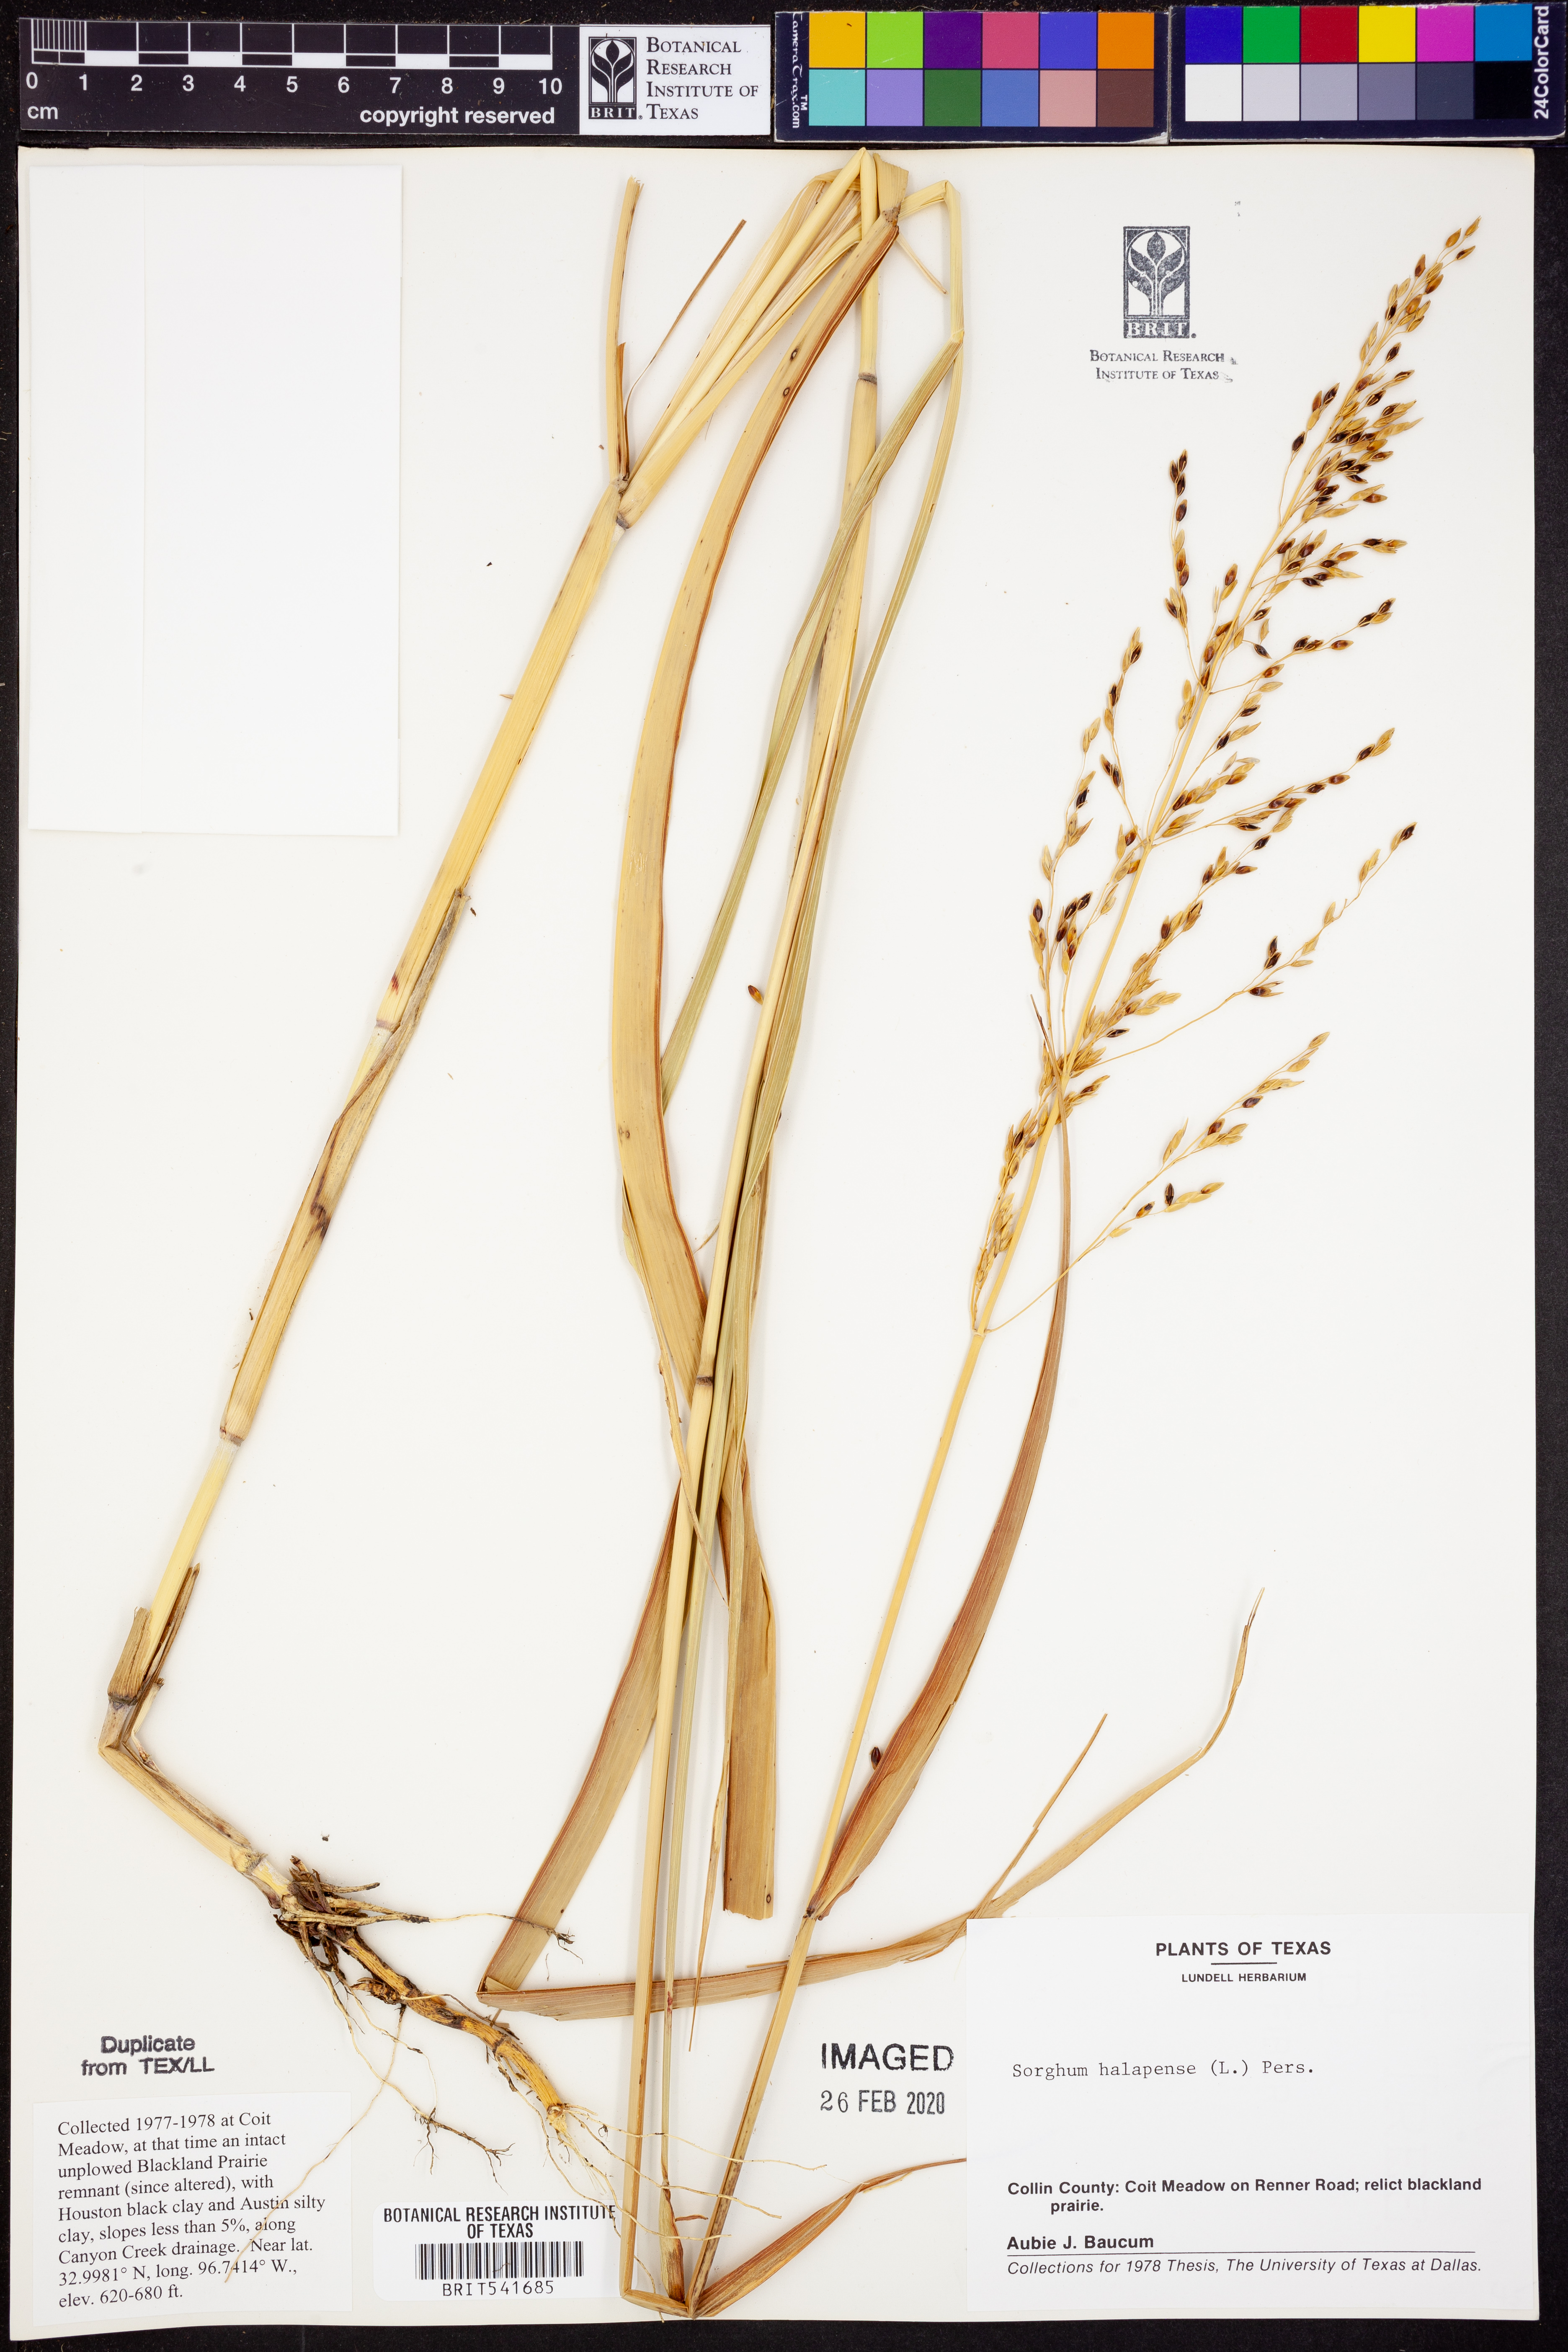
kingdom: Plantae
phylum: Tracheophyta
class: Liliopsida
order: Poales
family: Poaceae
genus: Sorghum
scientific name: Sorghum halepense
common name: Johnson-grass
